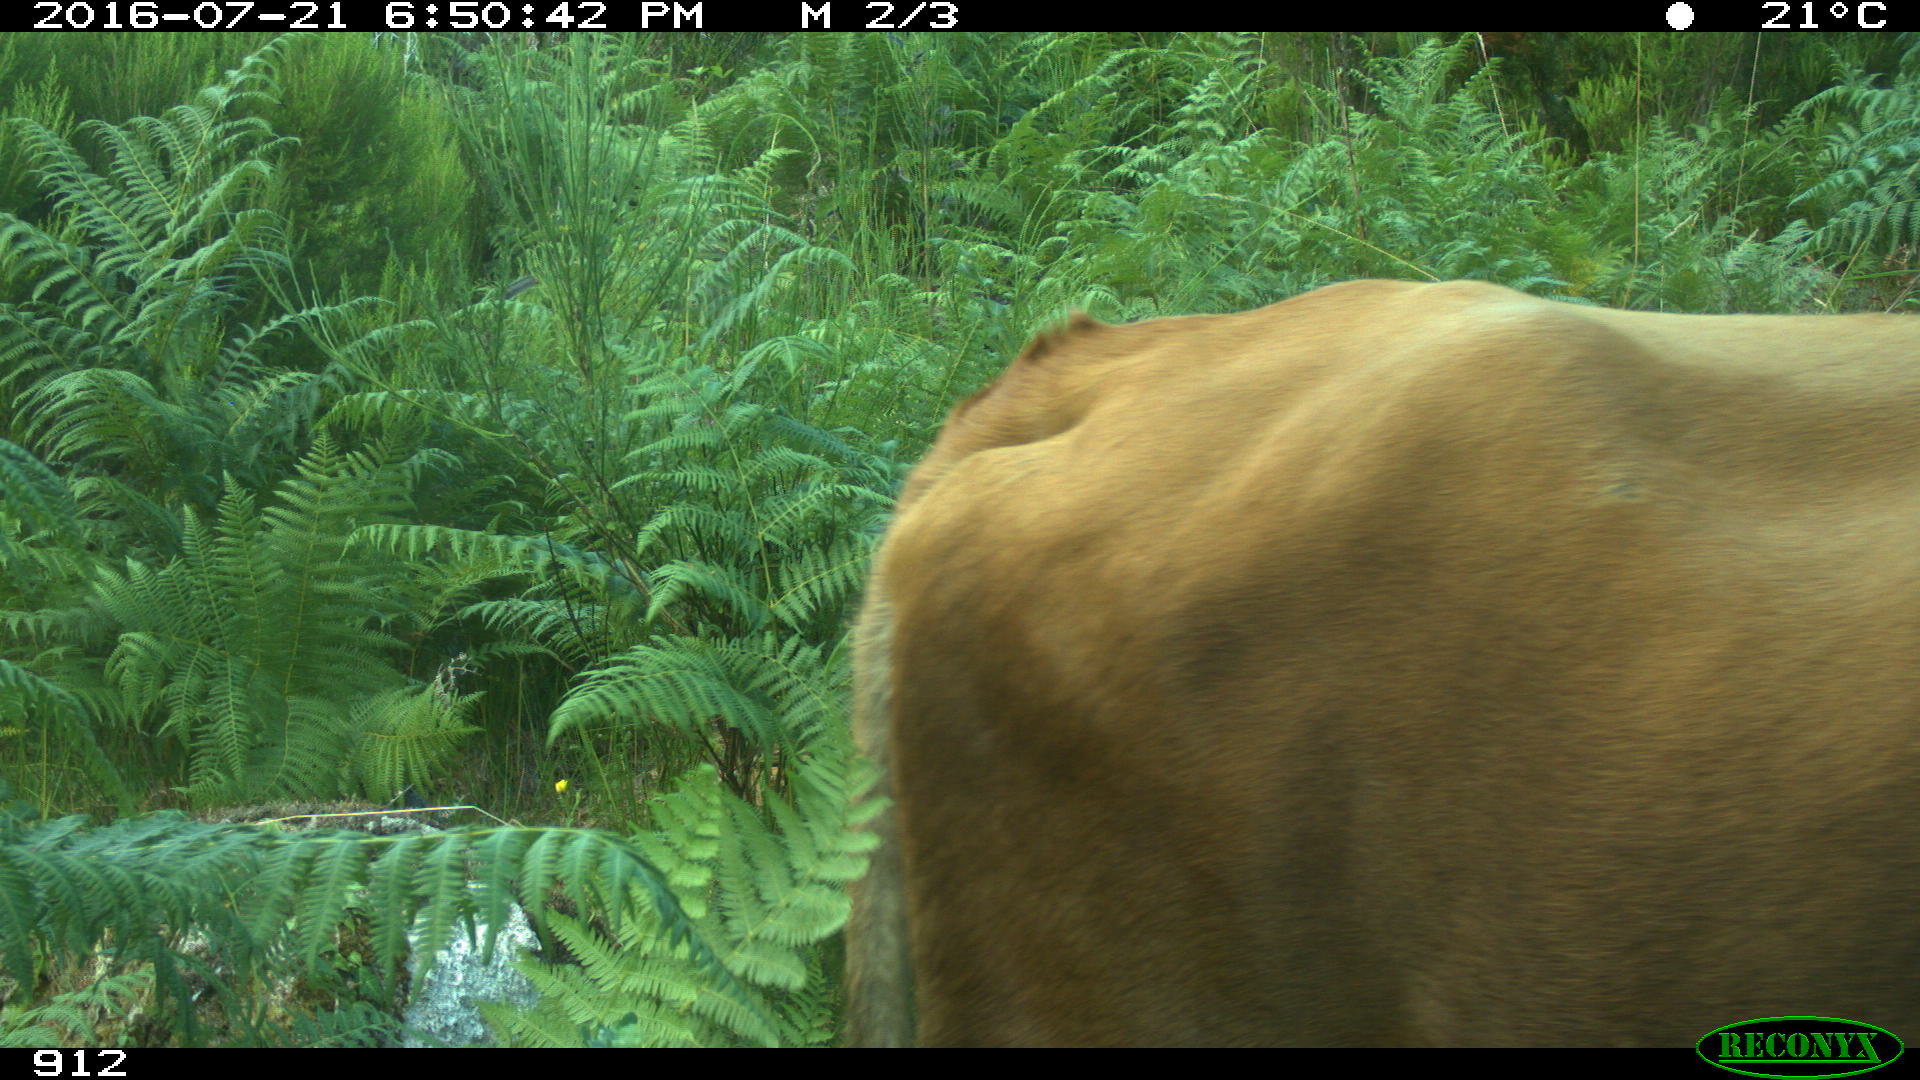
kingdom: Animalia
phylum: Chordata
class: Mammalia
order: Artiodactyla
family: Bovidae
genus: Bos
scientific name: Bos taurus
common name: Domesticated cattle
